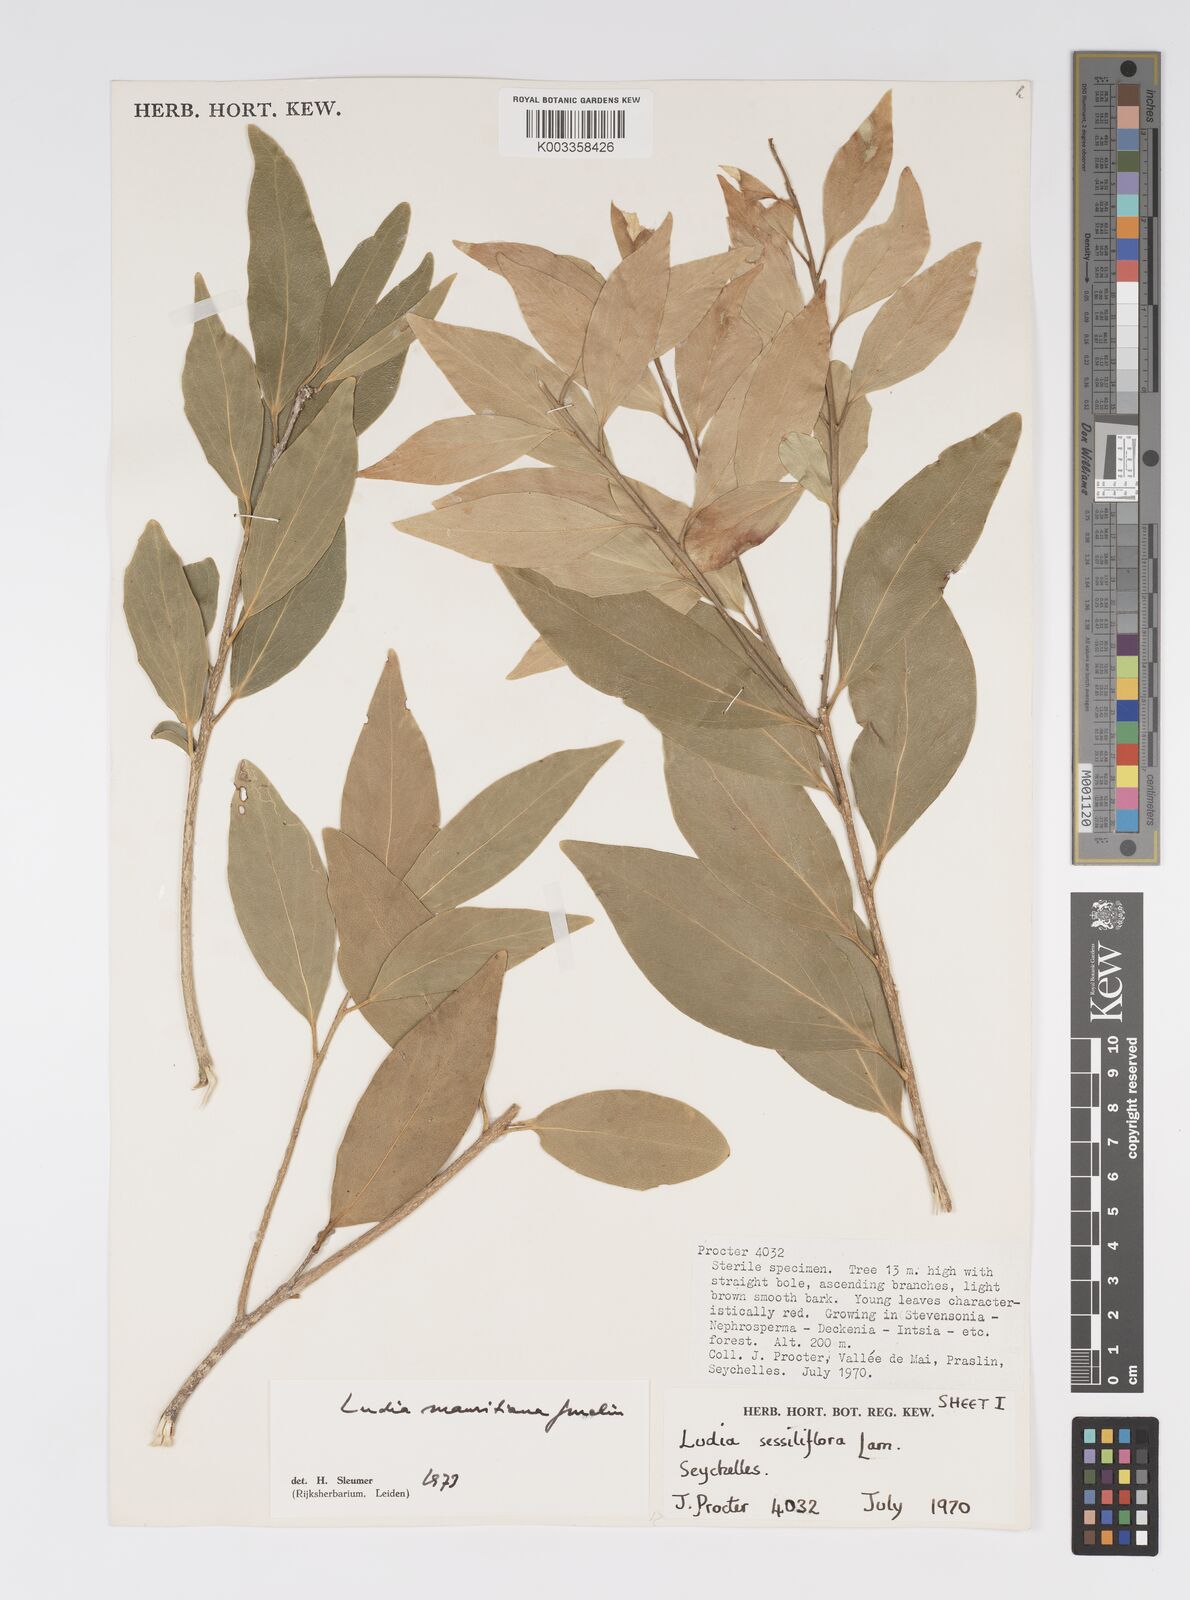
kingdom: Plantae
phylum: Tracheophyta
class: Magnoliopsida
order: Malpighiales
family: Salicaceae
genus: Ludia
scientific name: Ludia mauritiana
